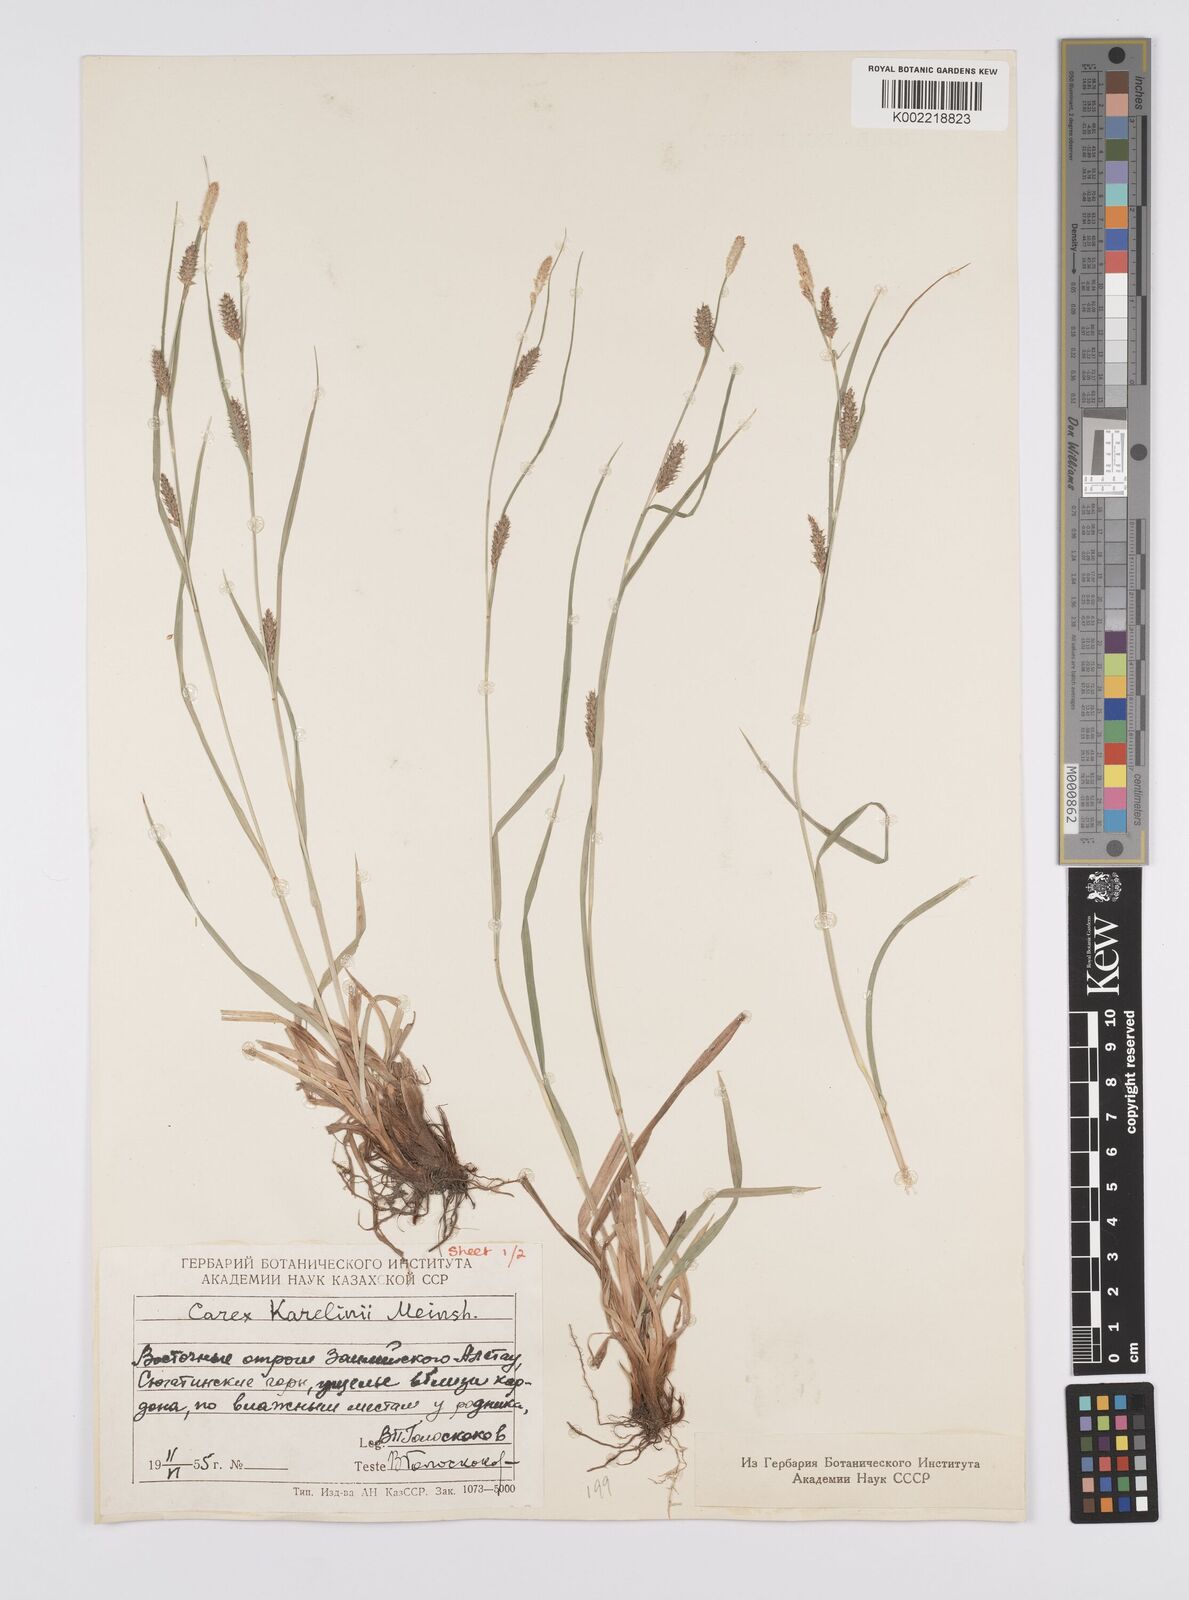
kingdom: Plantae
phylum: Tracheophyta
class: Liliopsida
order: Poales
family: Cyperaceae
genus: Carex
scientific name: Carex diluta
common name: Sedge
